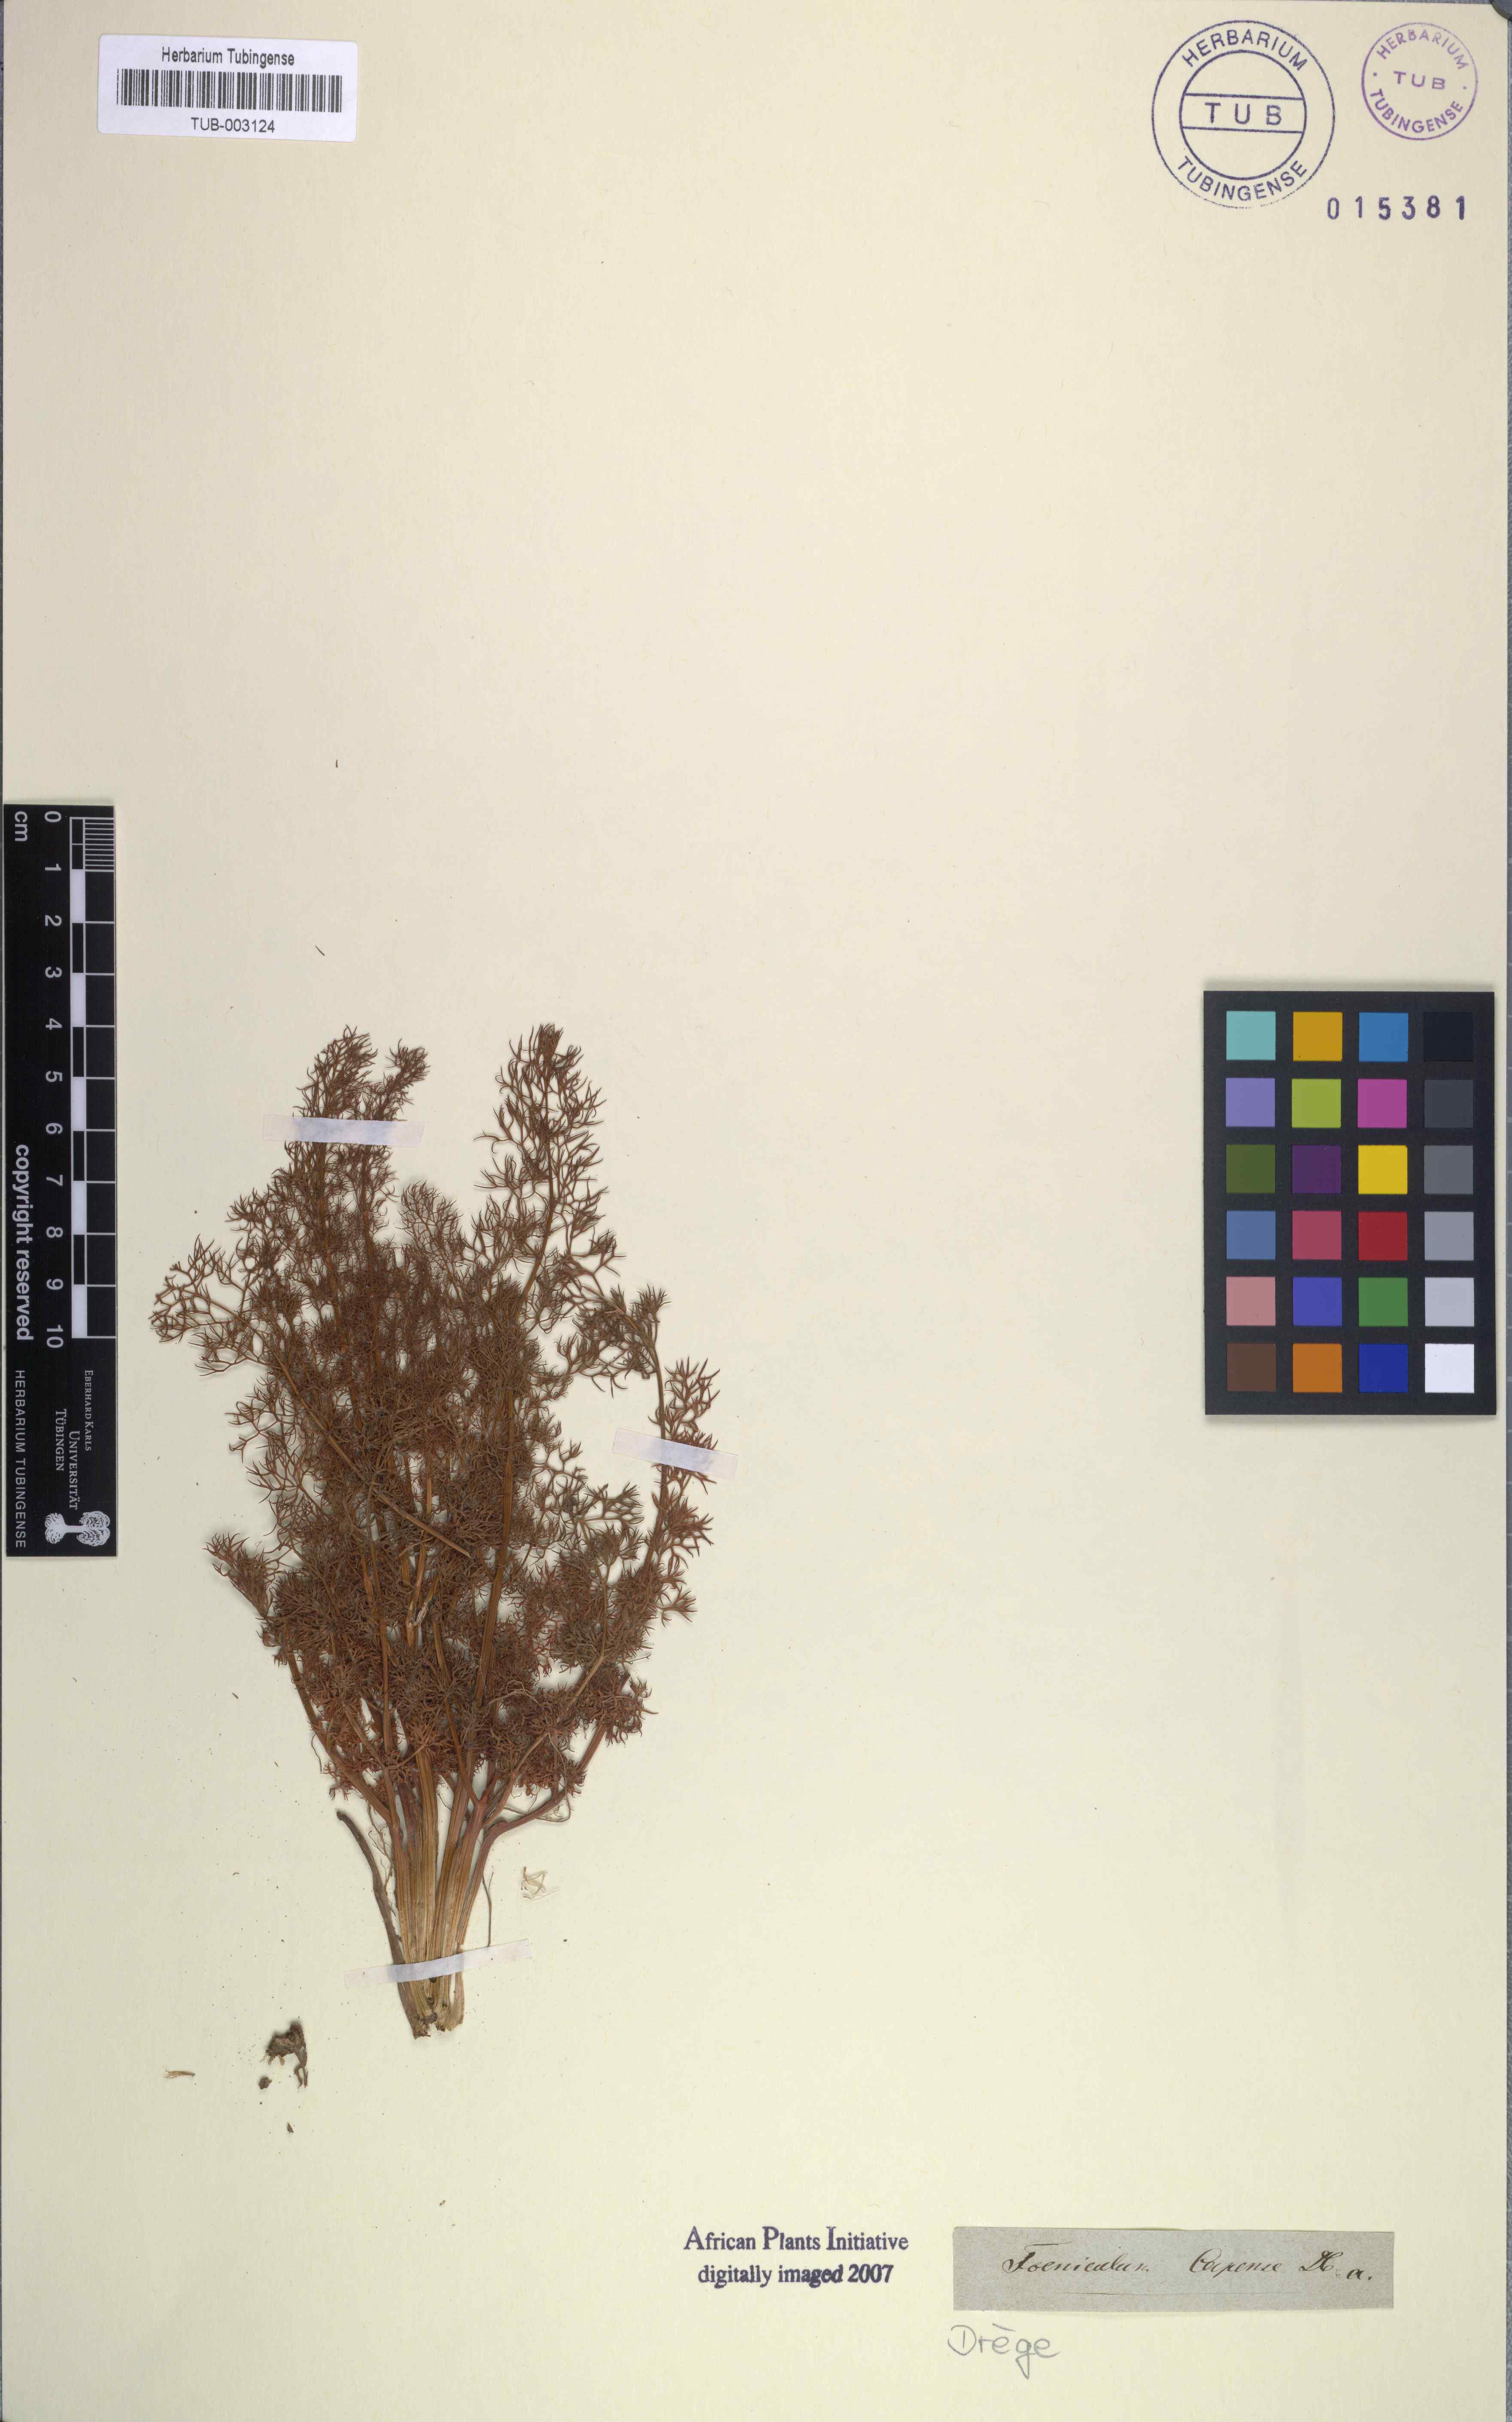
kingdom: Plantae
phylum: Tracheophyta
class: Magnoliopsida
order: Apiales
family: Apiaceae
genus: Chamarea
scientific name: Chamarea capensis
